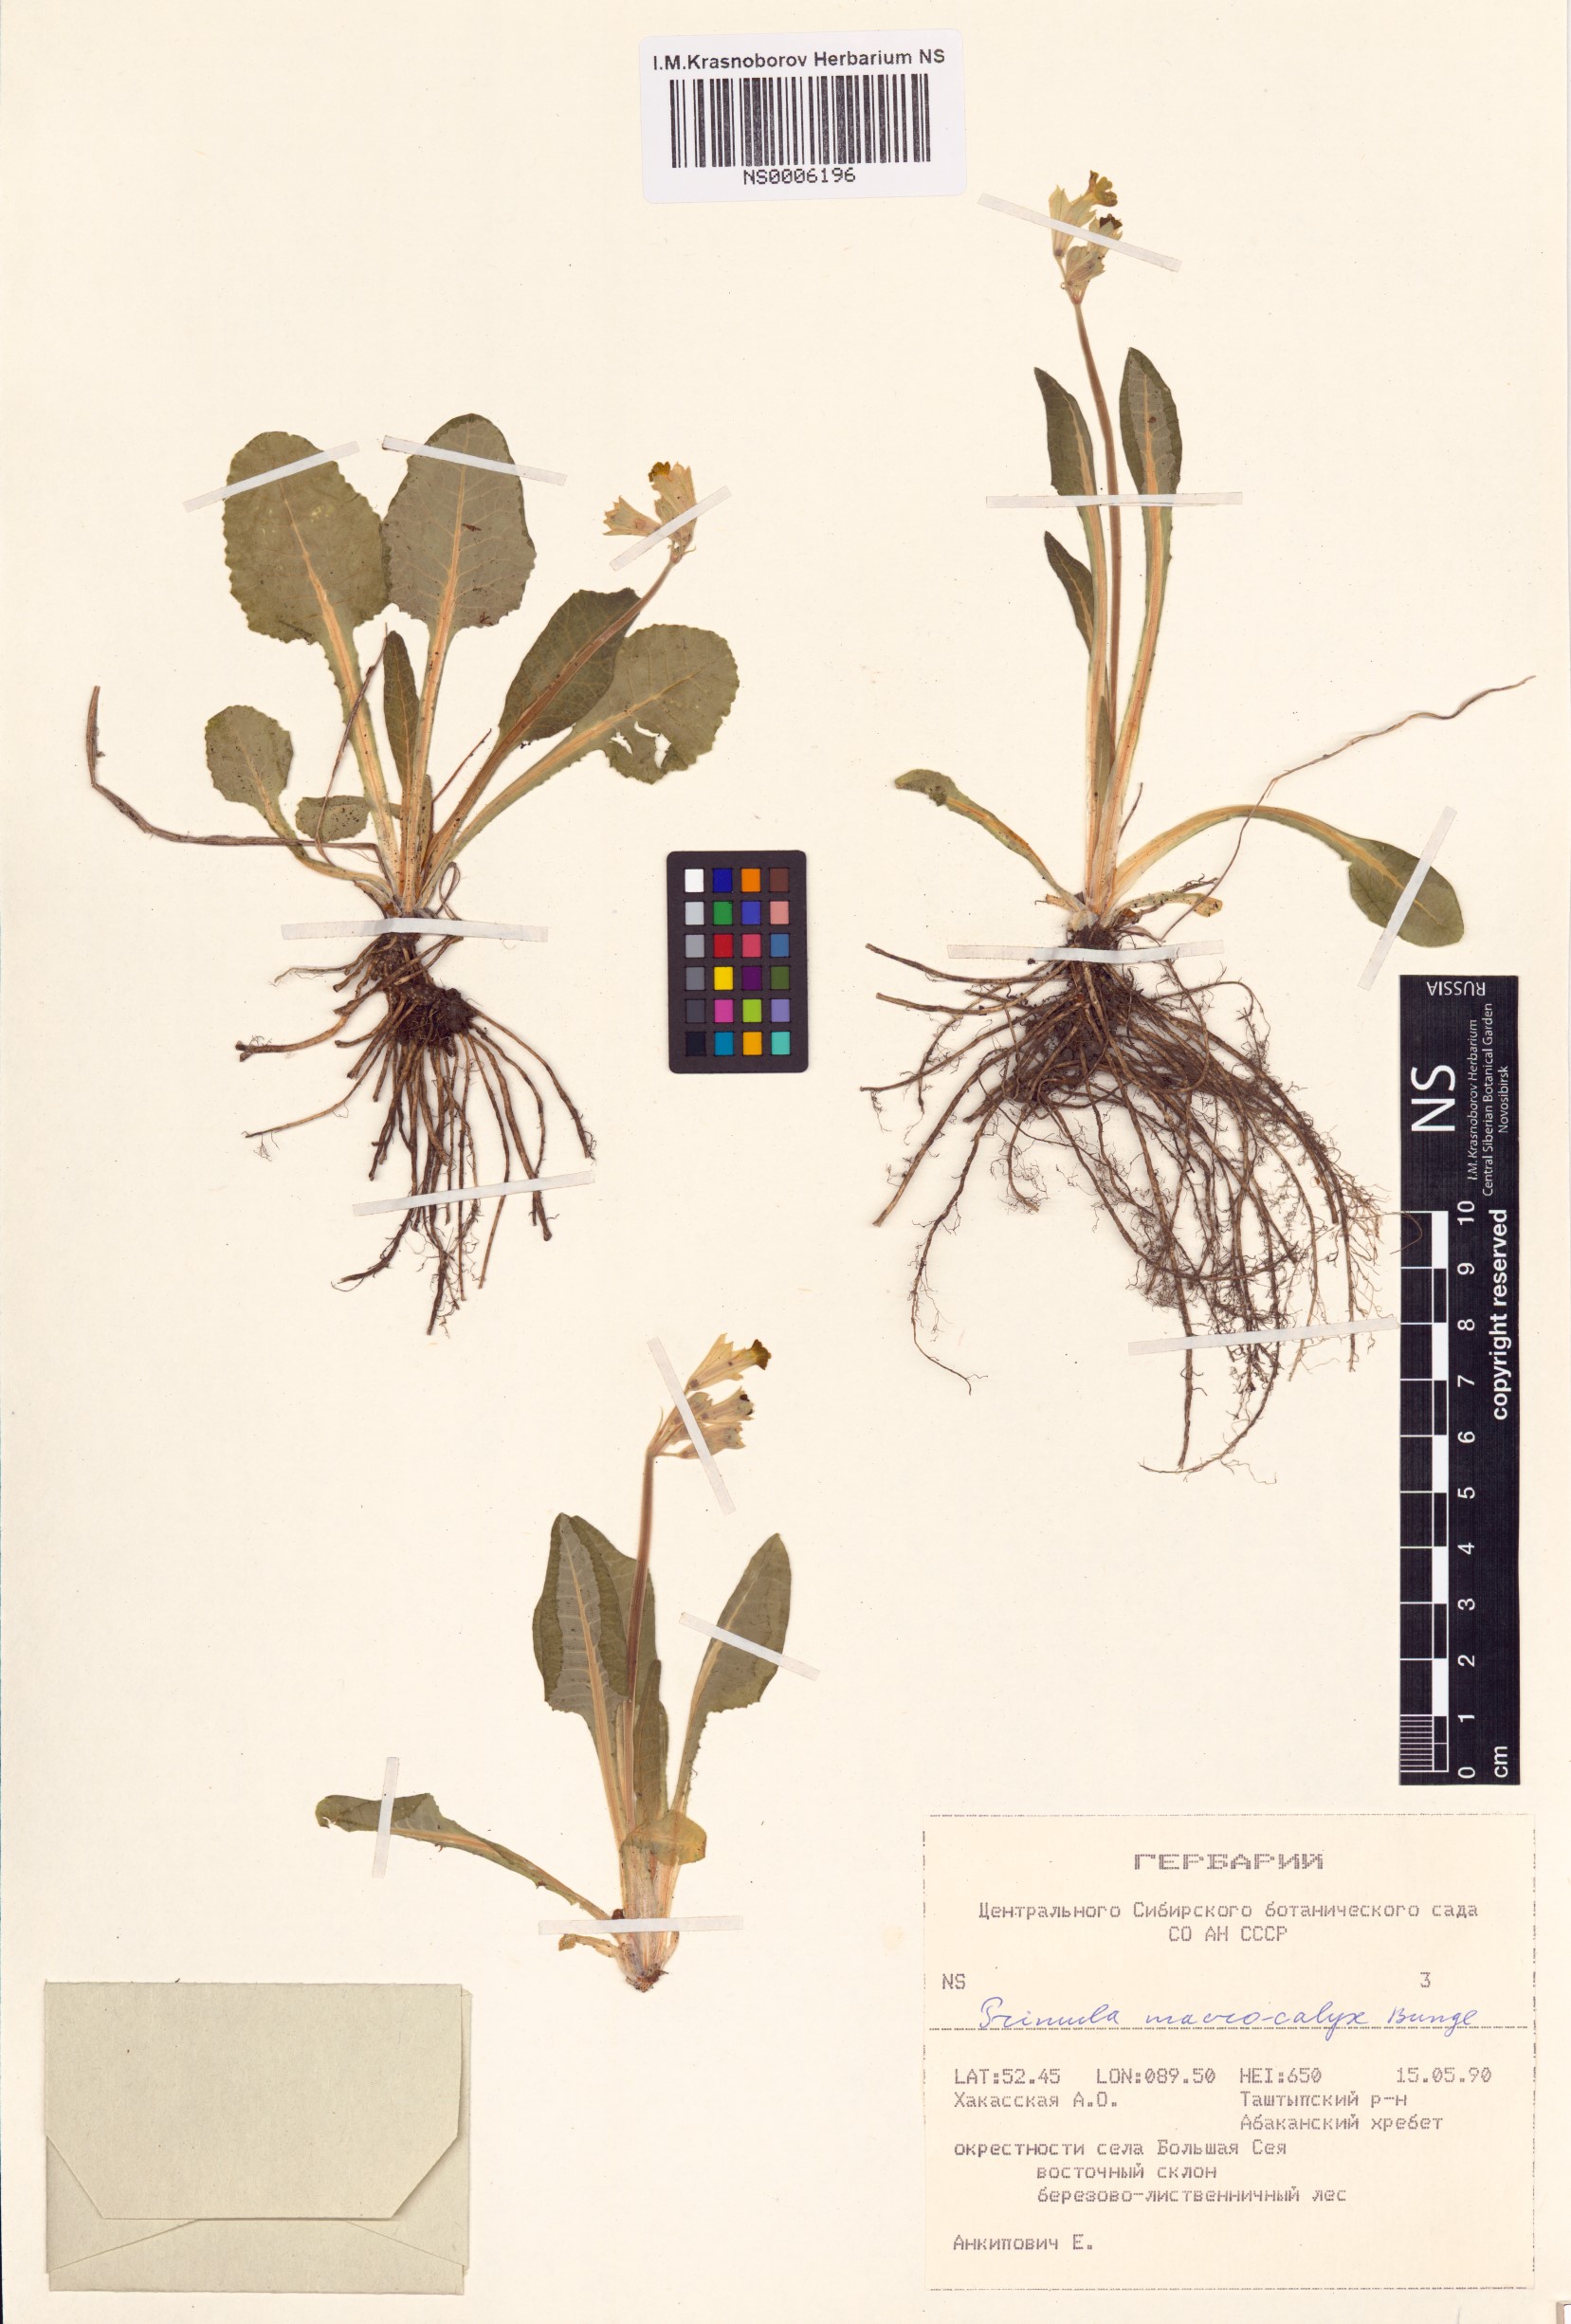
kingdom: Plantae
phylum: Tracheophyta
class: Magnoliopsida
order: Ericales
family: Primulaceae
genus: Primula
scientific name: Primula veris
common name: Cowslip
